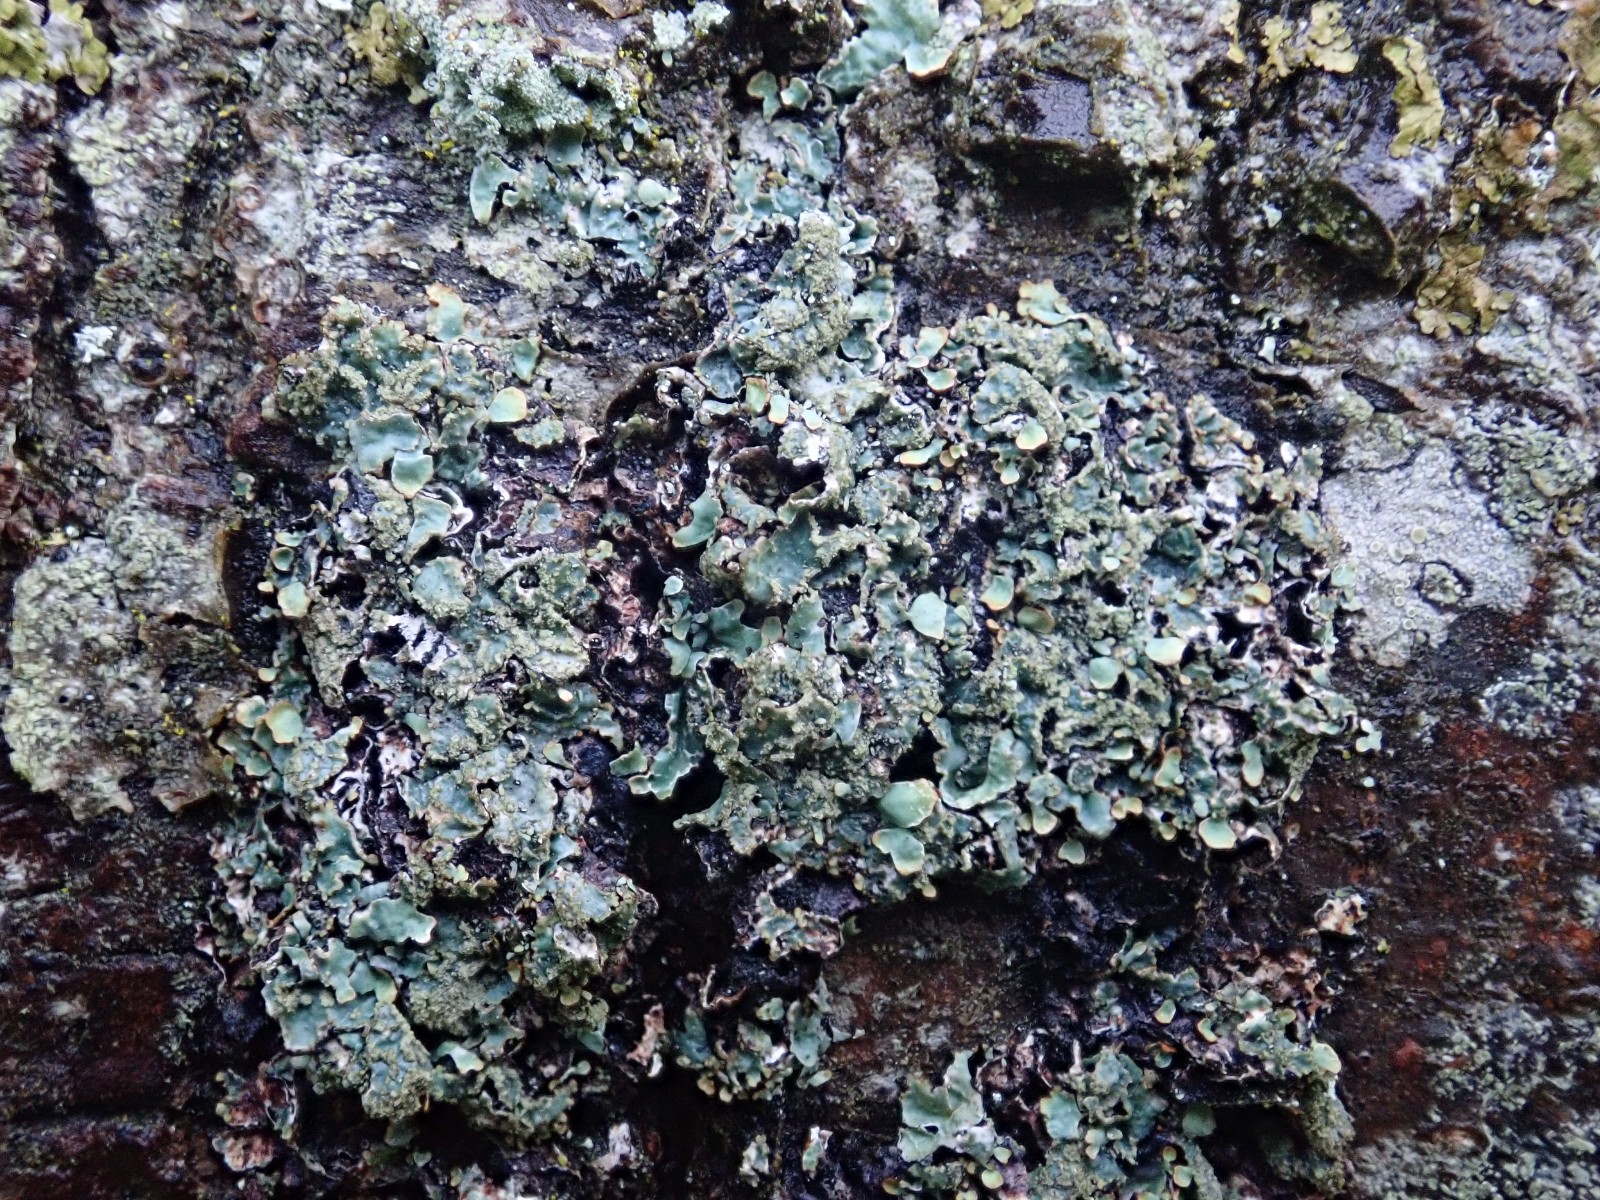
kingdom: Fungi
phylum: Ascomycota
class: Lecanoromycetes
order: Lecanorales
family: Parmeliaceae
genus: Parmelia
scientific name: Parmelia sulcata
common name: rynket skållav
